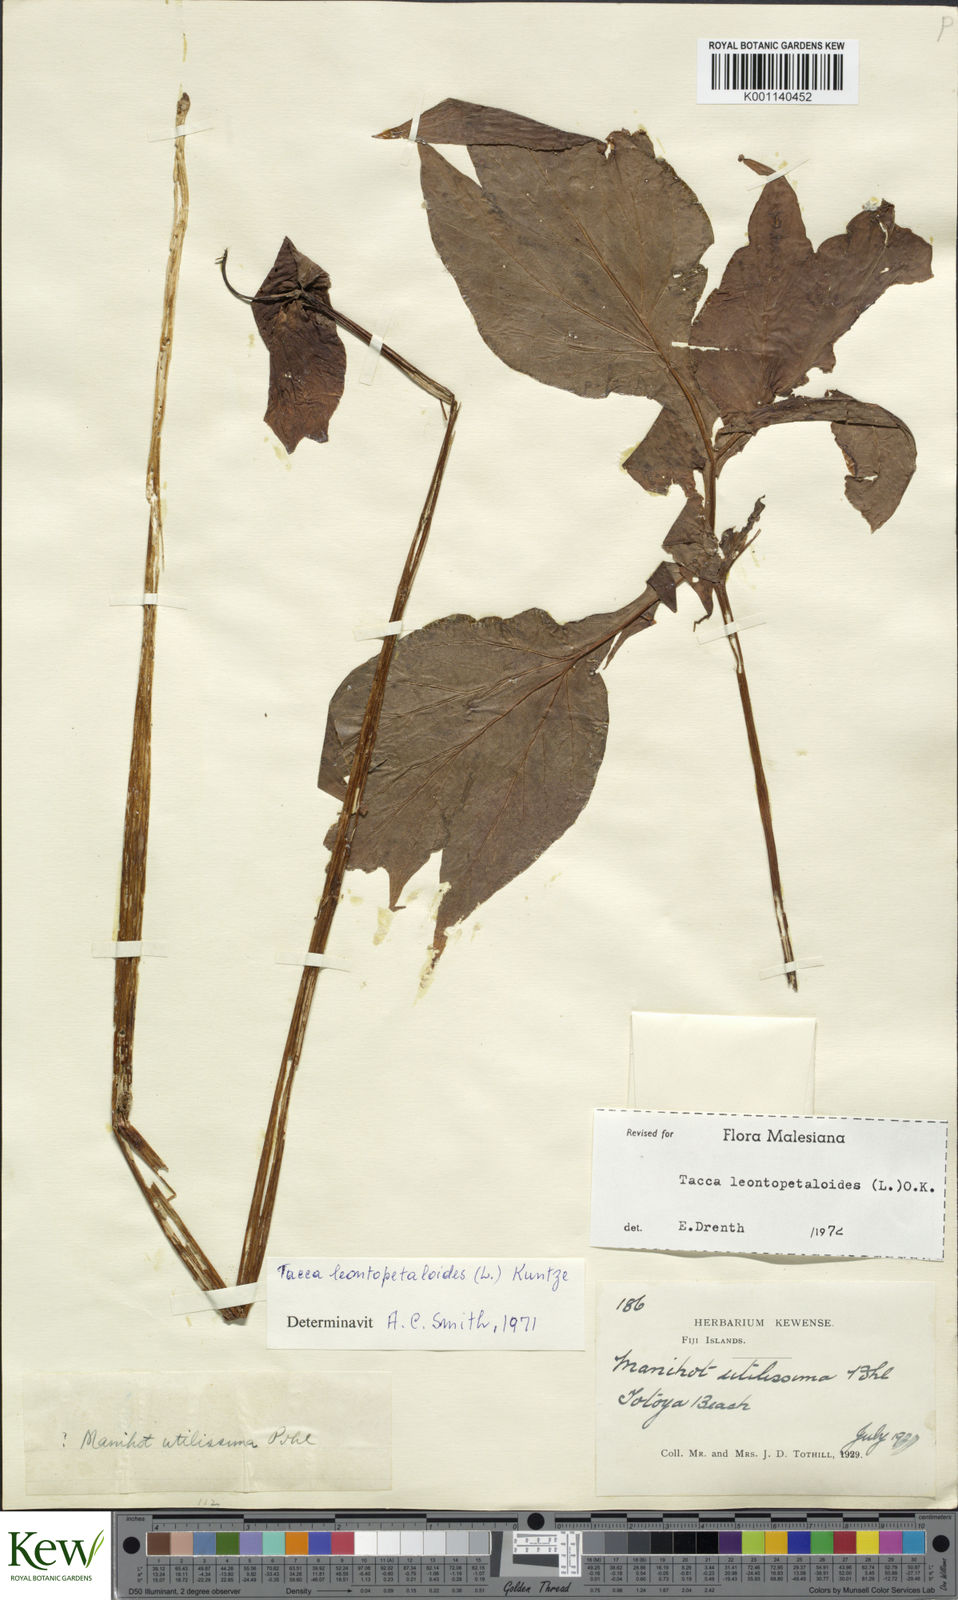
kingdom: Plantae
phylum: Tracheophyta
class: Liliopsida
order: Dioscoreales
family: Dioscoreaceae
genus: Tacca
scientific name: Tacca leontopetaloides
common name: Arrowroot
